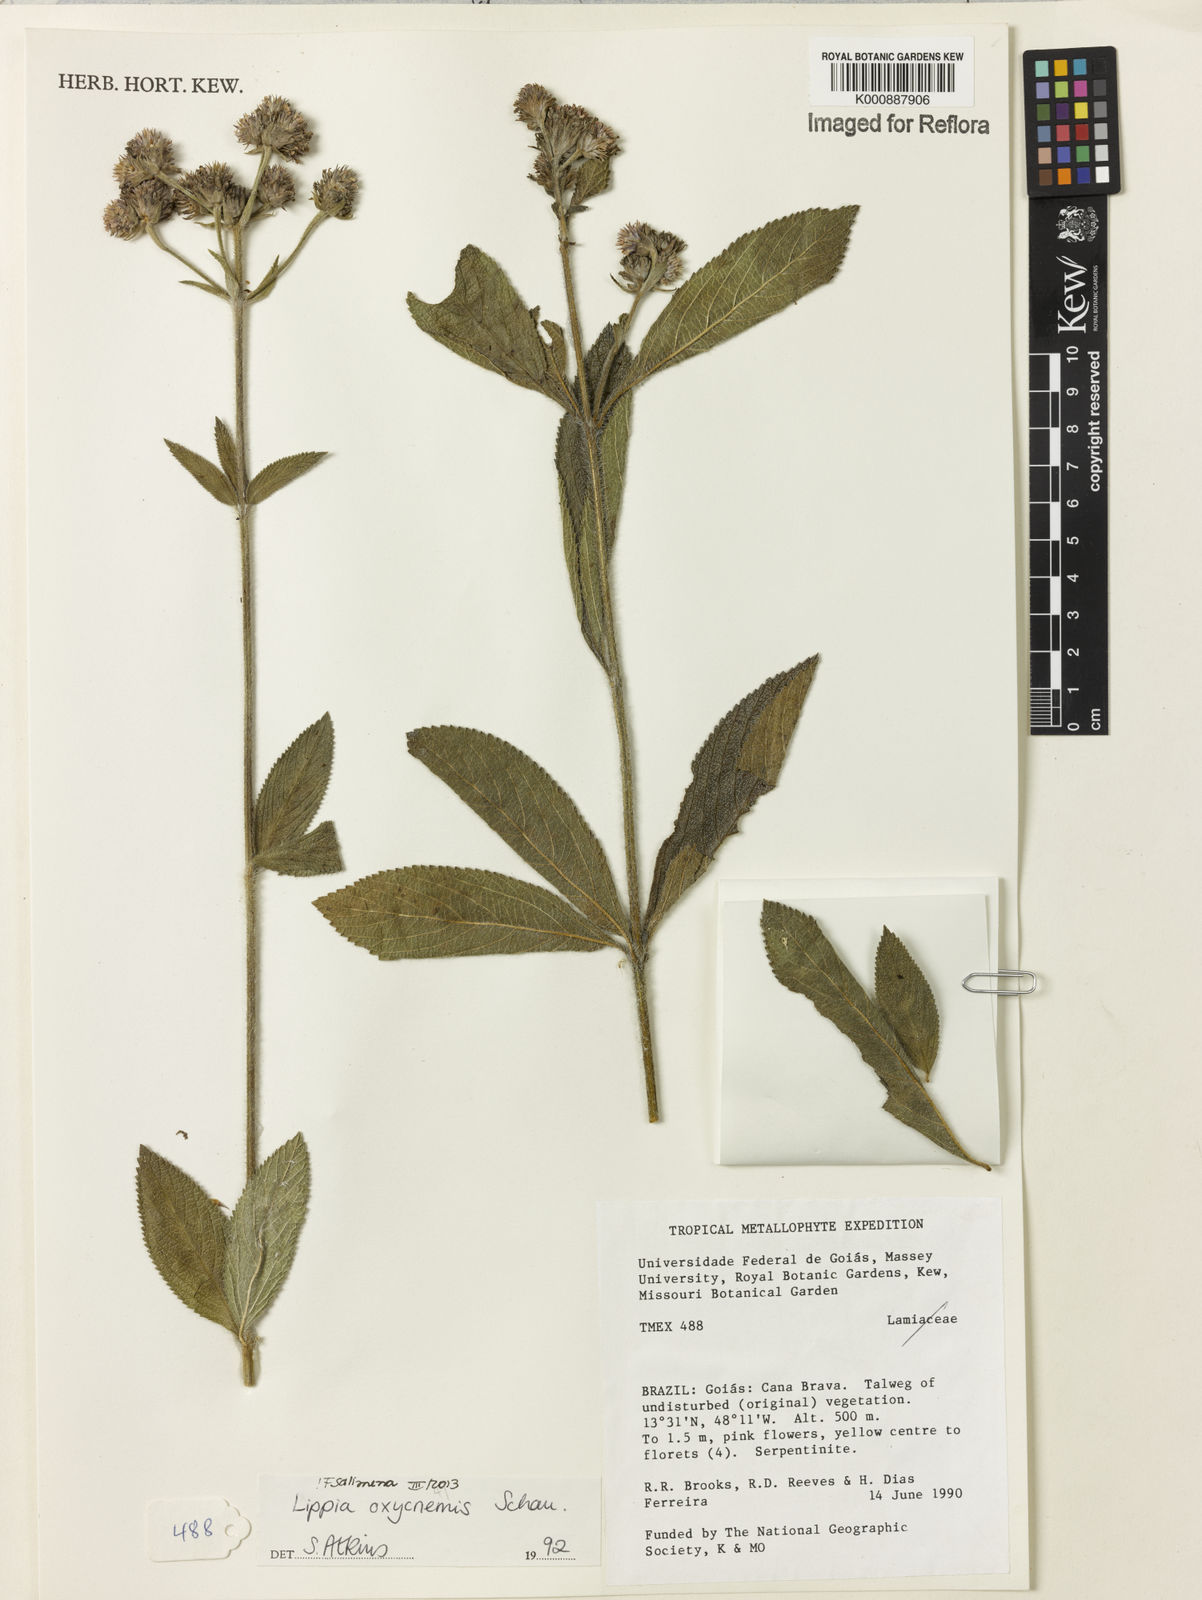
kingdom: Plantae
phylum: Tracheophyta
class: Magnoliopsida
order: Lamiales
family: Verbenaceae
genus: Lippia
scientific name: Lippia oxycnemis
